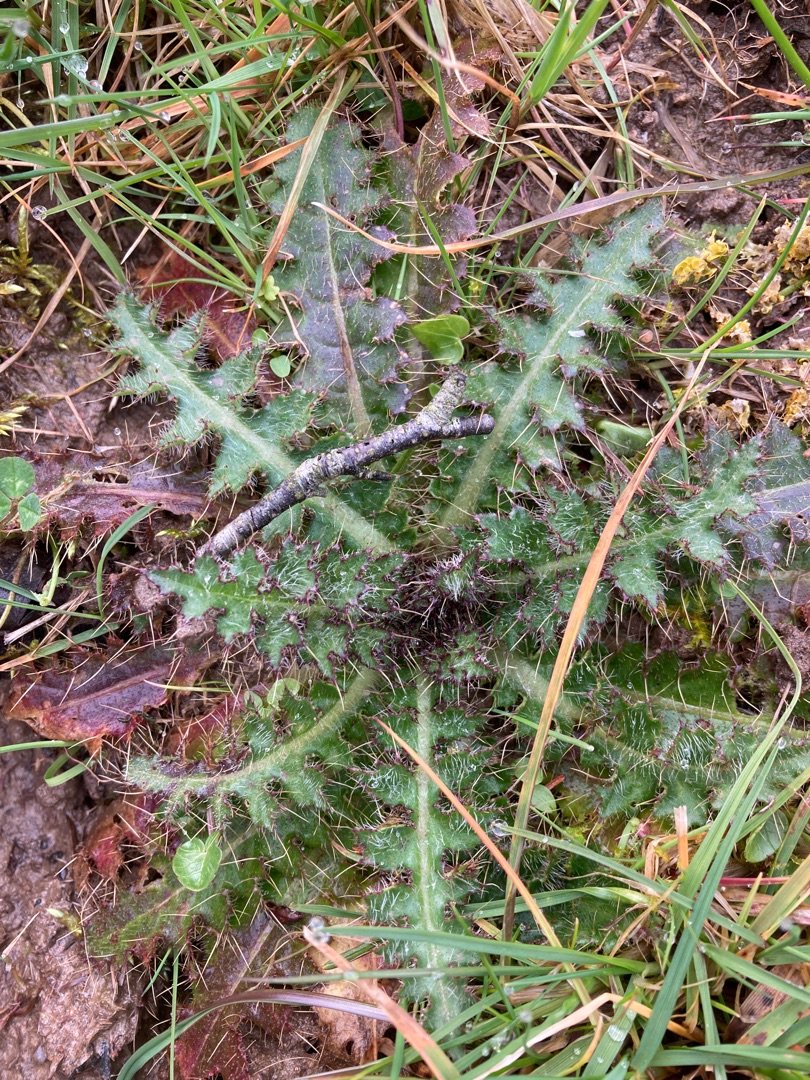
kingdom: Plantae
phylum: Tracheophyta
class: Magnoliopsida
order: Asterales
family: Asteraceae
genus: Cirsium
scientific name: Cirsium palustre
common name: Kær-tidsel
